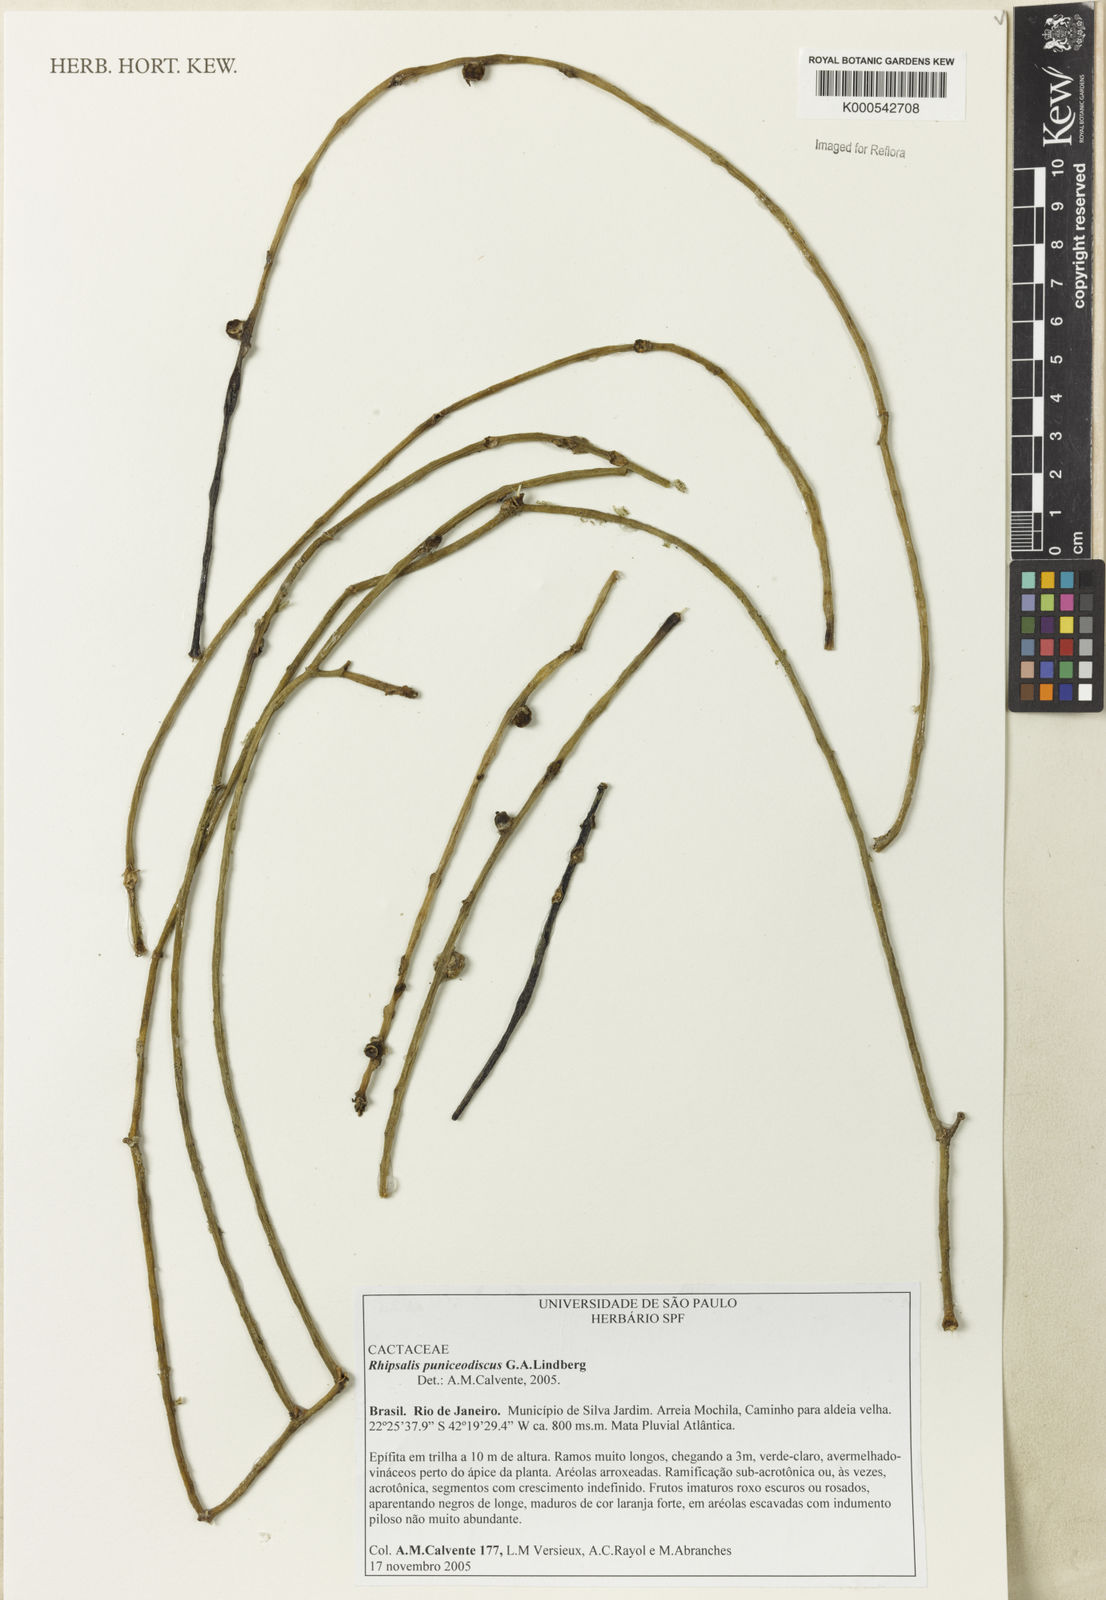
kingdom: Plantae
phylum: Tracheophyta
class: Magnoliopsida
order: Caryophyllales
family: Cactaceae
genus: Rhipsalis
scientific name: Rhipsalis puniceodiscus
